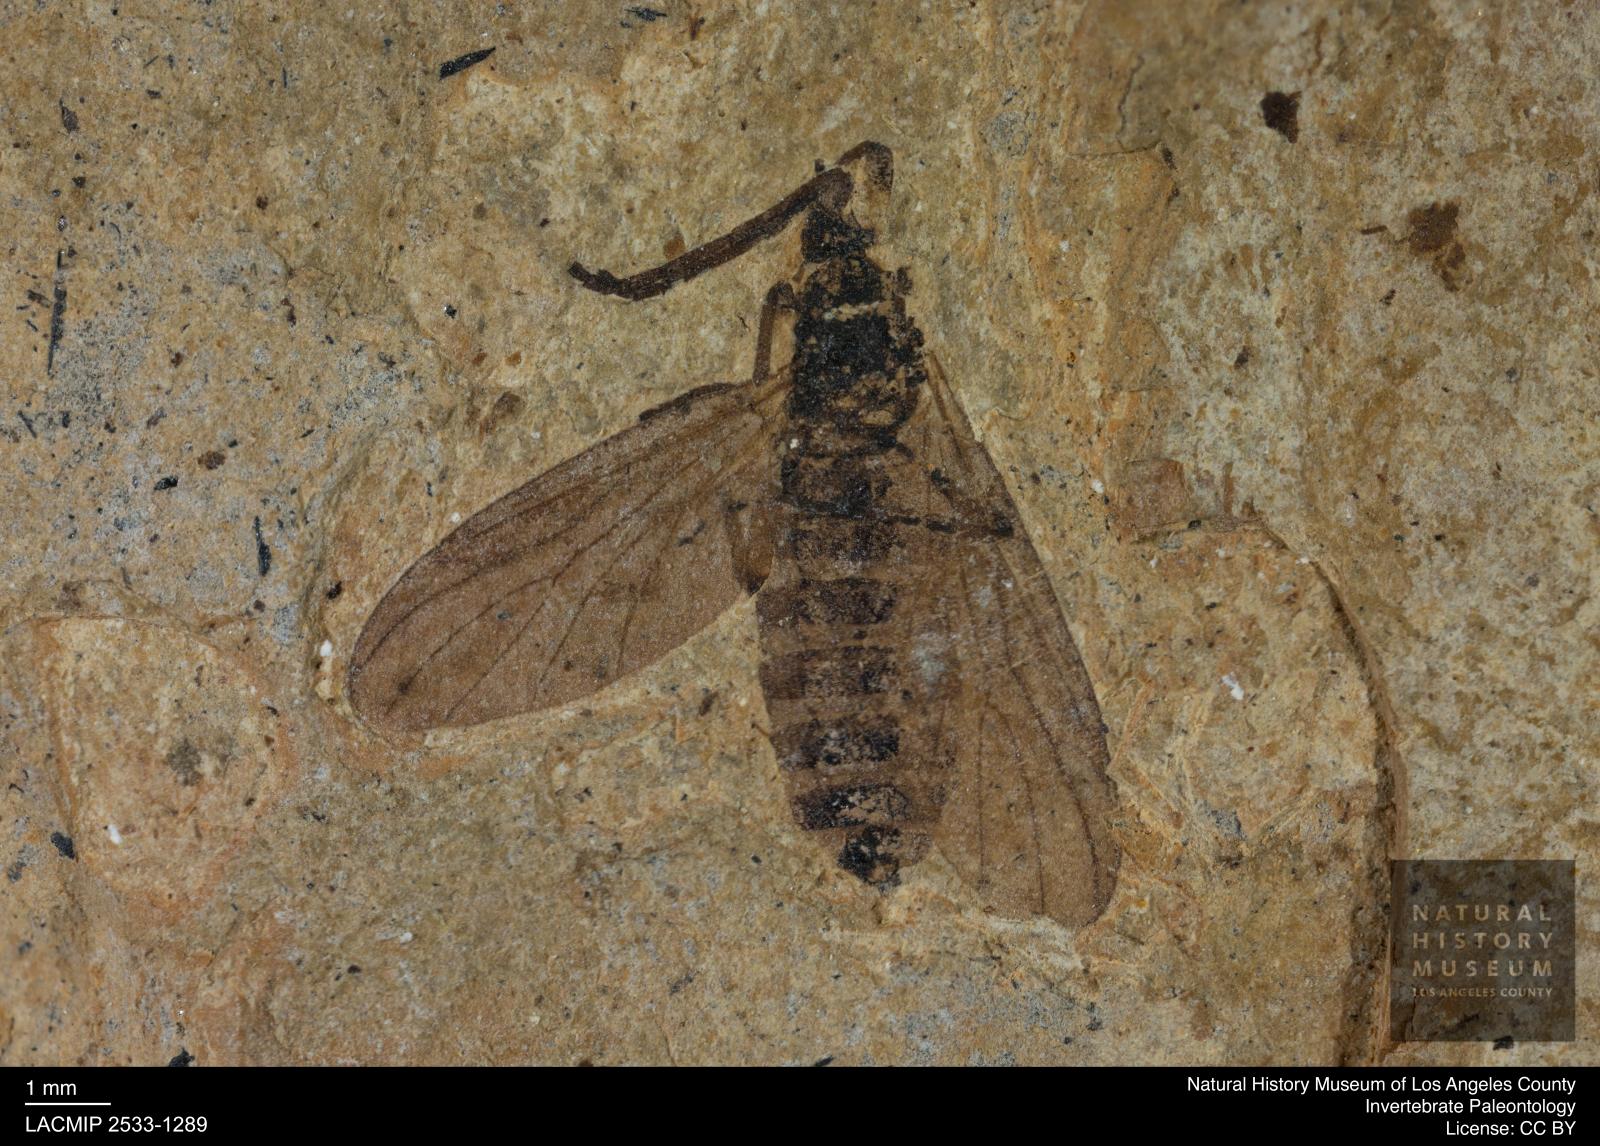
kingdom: Animalia
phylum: Arthropoda
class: Insecta
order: Diptera
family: Bibionidae
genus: Plecia
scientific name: Plecia hypogaea
